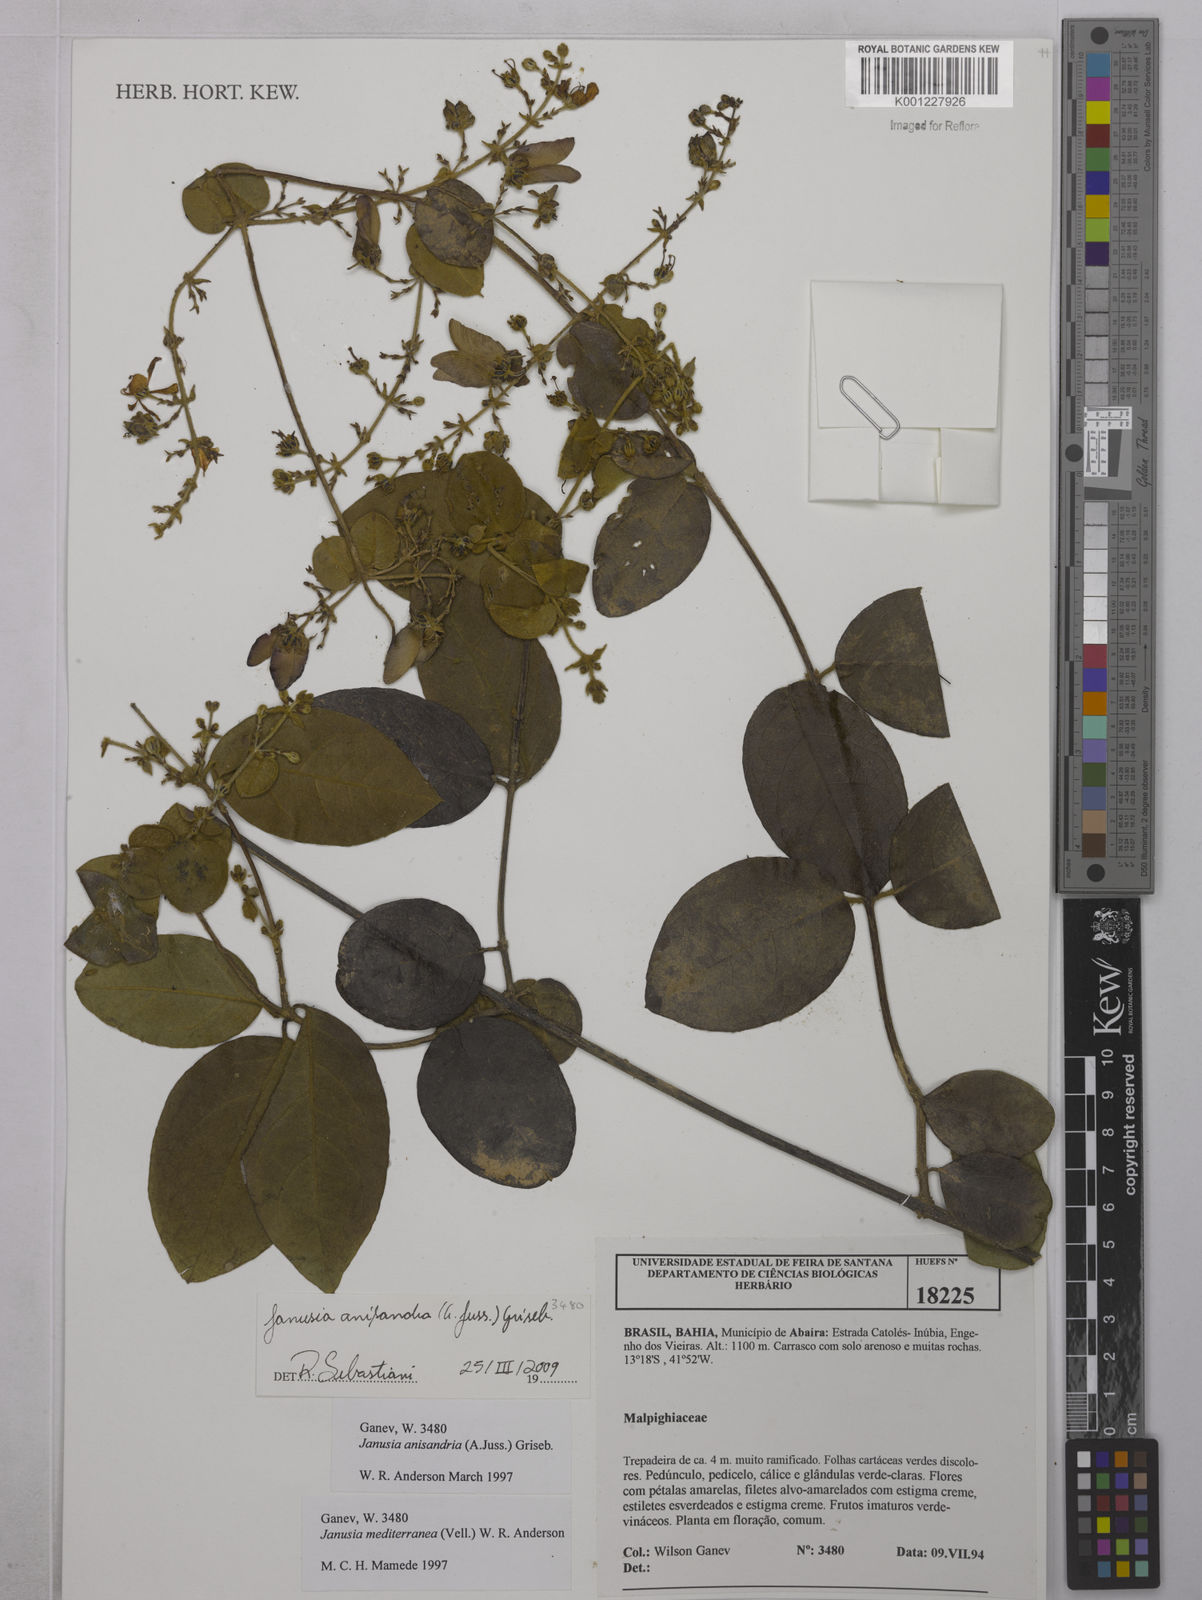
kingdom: Plantae
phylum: Tracheophyta
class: Magnoliopsida
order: Malpighiales
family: Malpighiaceae
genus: Janusia
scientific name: Janusia anisandra
